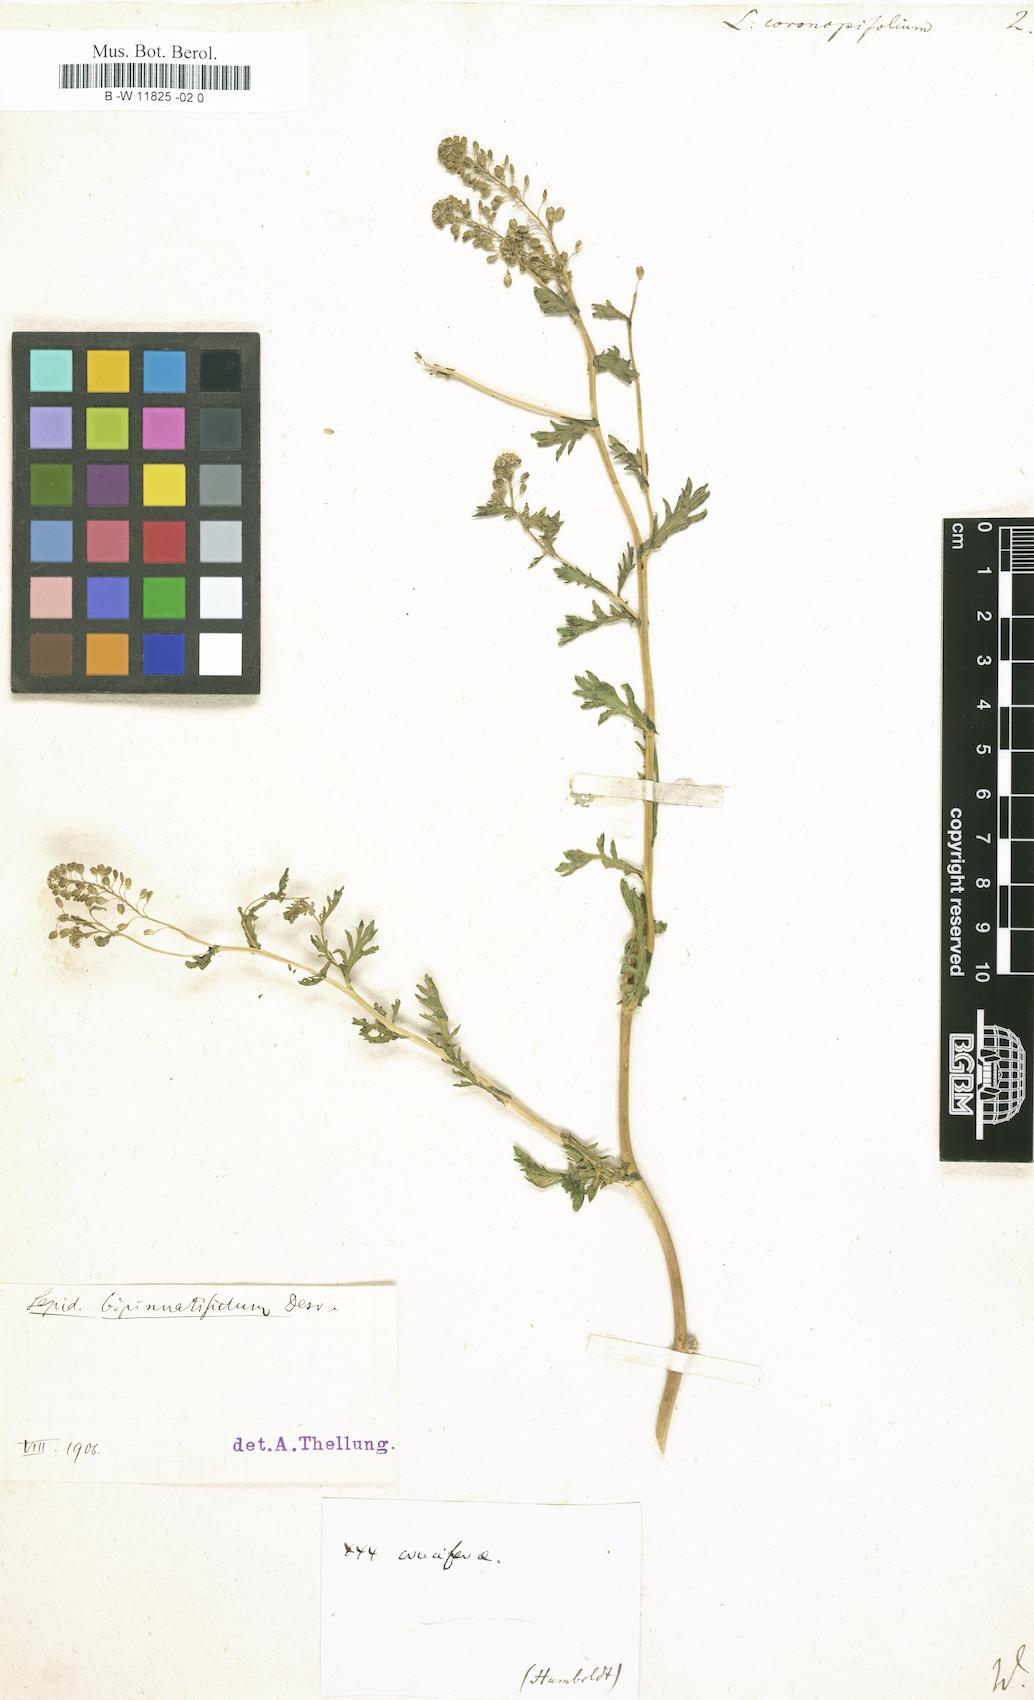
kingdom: Plantae
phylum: Tracheophyta
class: Magnoliopsida
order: Brassicales
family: Brassicaceae
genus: Lepidium
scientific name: Lepidium coronopifolium
